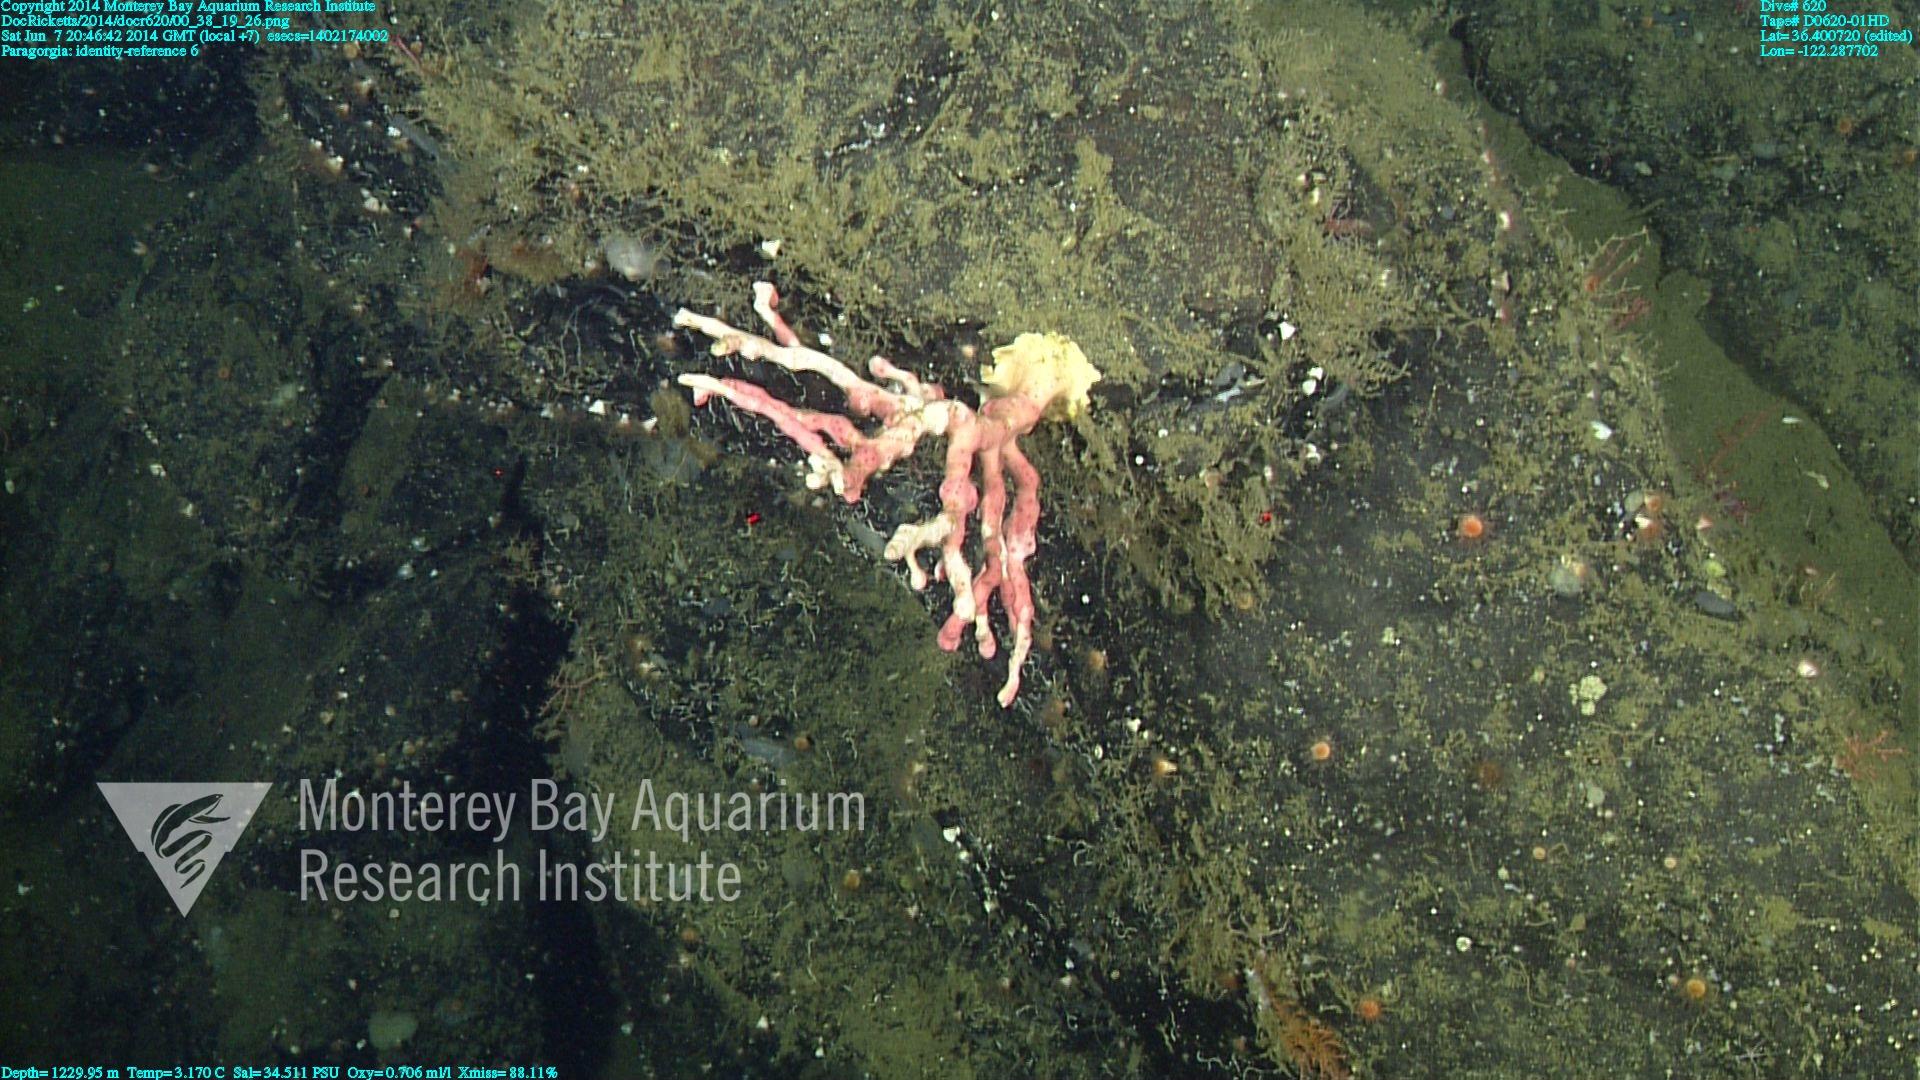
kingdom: Animalia
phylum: Cnidaria
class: Anthozoa
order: Scleralcyonacea
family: Coralliidae
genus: Paragorgia
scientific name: Paragorgia
